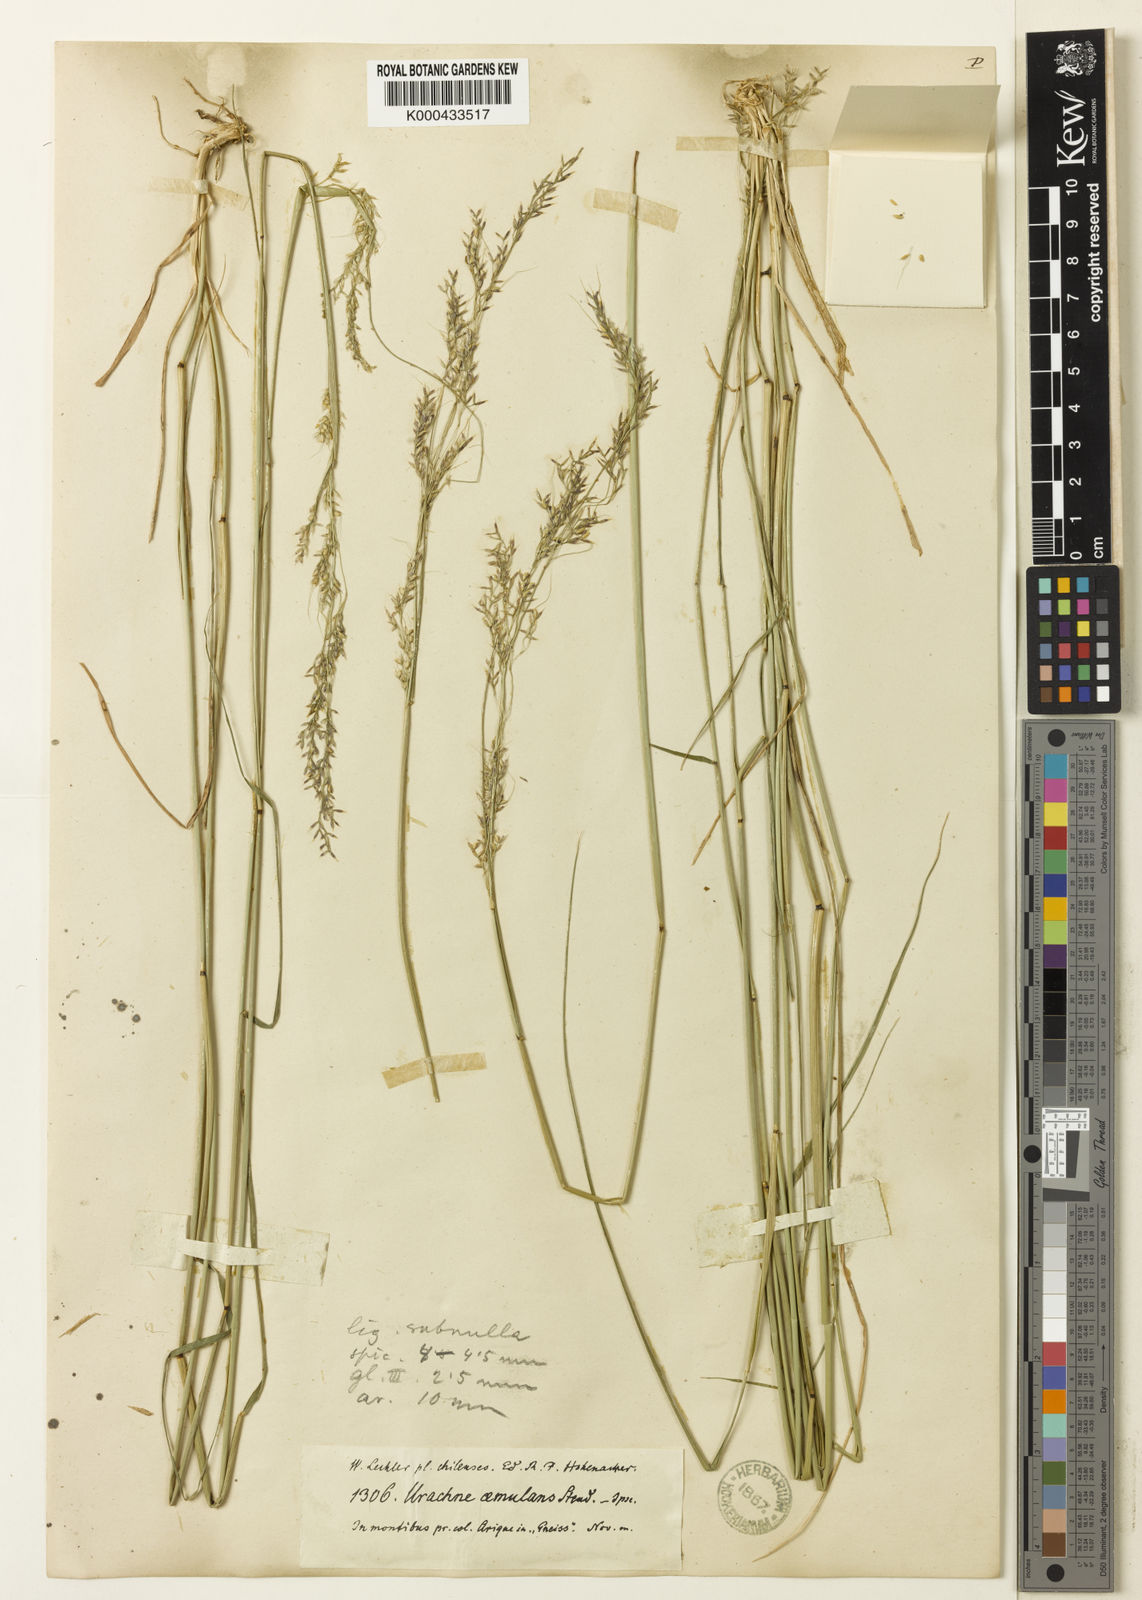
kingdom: Plantae
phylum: Tracheophyta
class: Liliopsida
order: Poales
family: Poaceae
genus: Nassella
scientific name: Nassella gigantea
